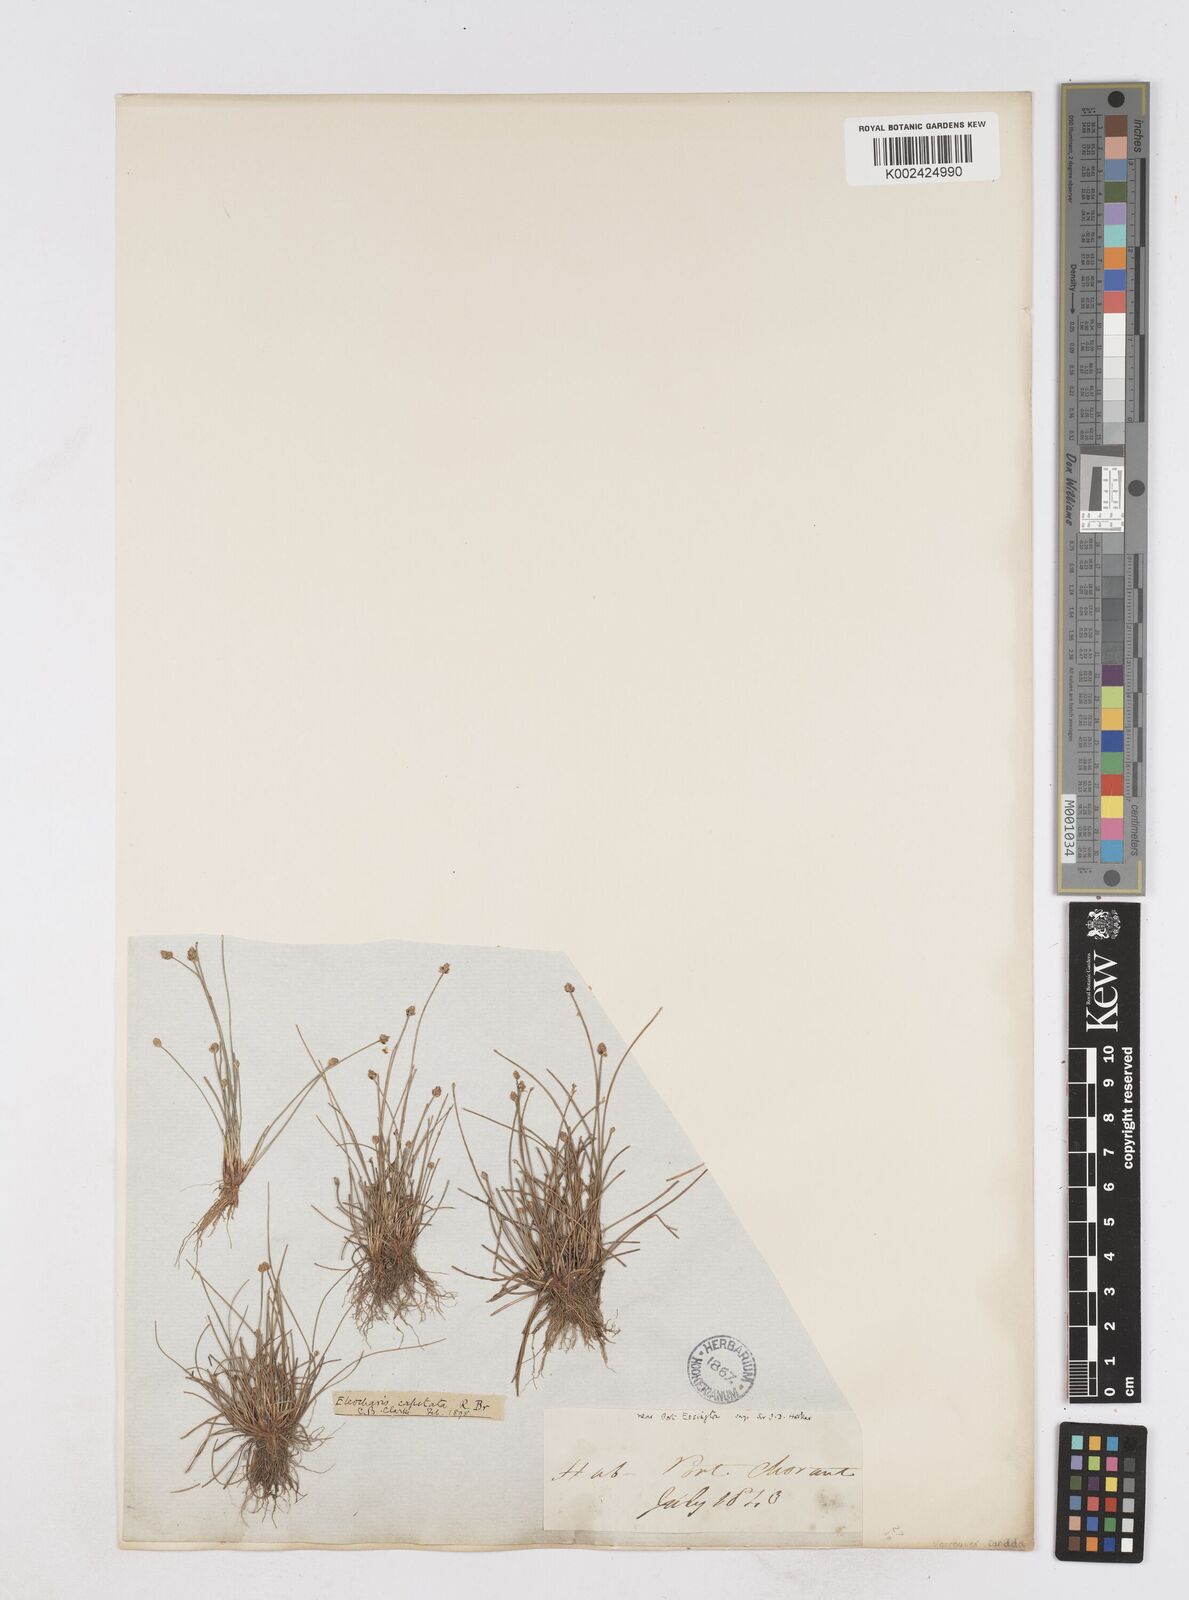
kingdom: Plantae
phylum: Tracheophyta
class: Liliopsida
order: Poales
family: Cyperaceae
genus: Eleocharis
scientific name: Eleocharis geniculata
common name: Canada spikesedge
